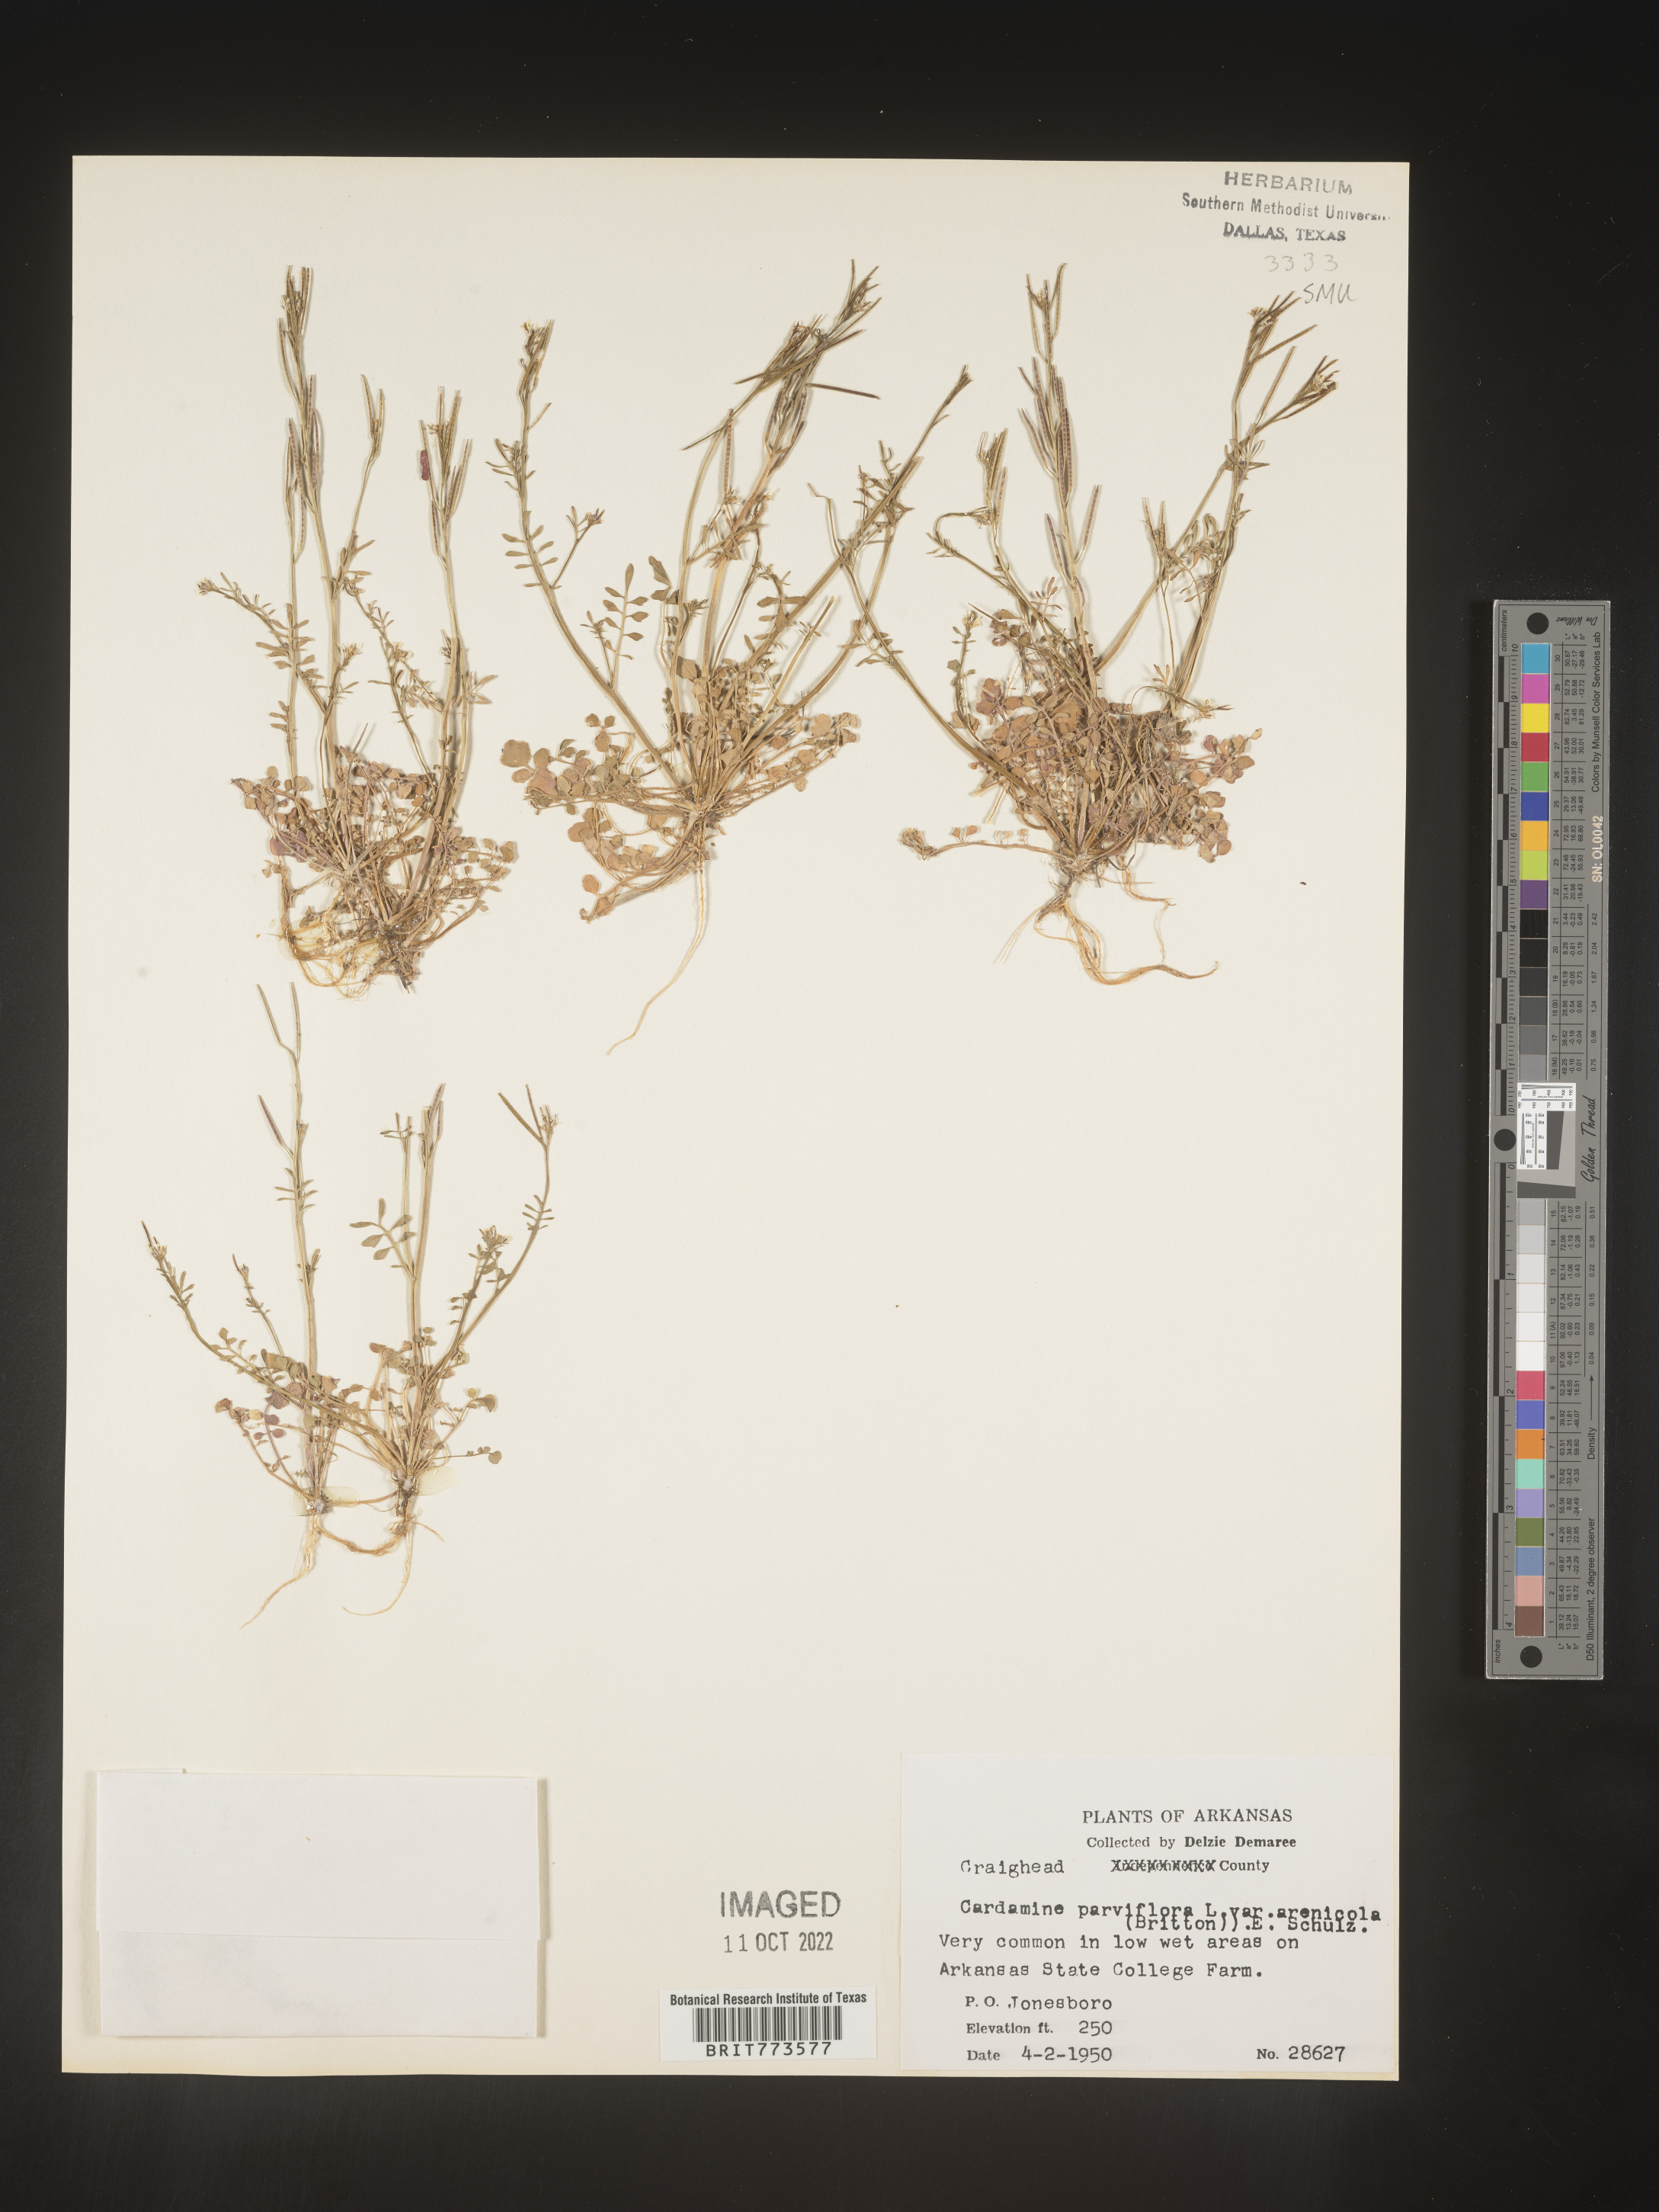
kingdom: Plantae
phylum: Tracheophyta
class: Magnoliopsida
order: Brassicales
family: Brassicaceae
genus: Cardamine
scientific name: Cardamine parviflora
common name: Sand bittercress
